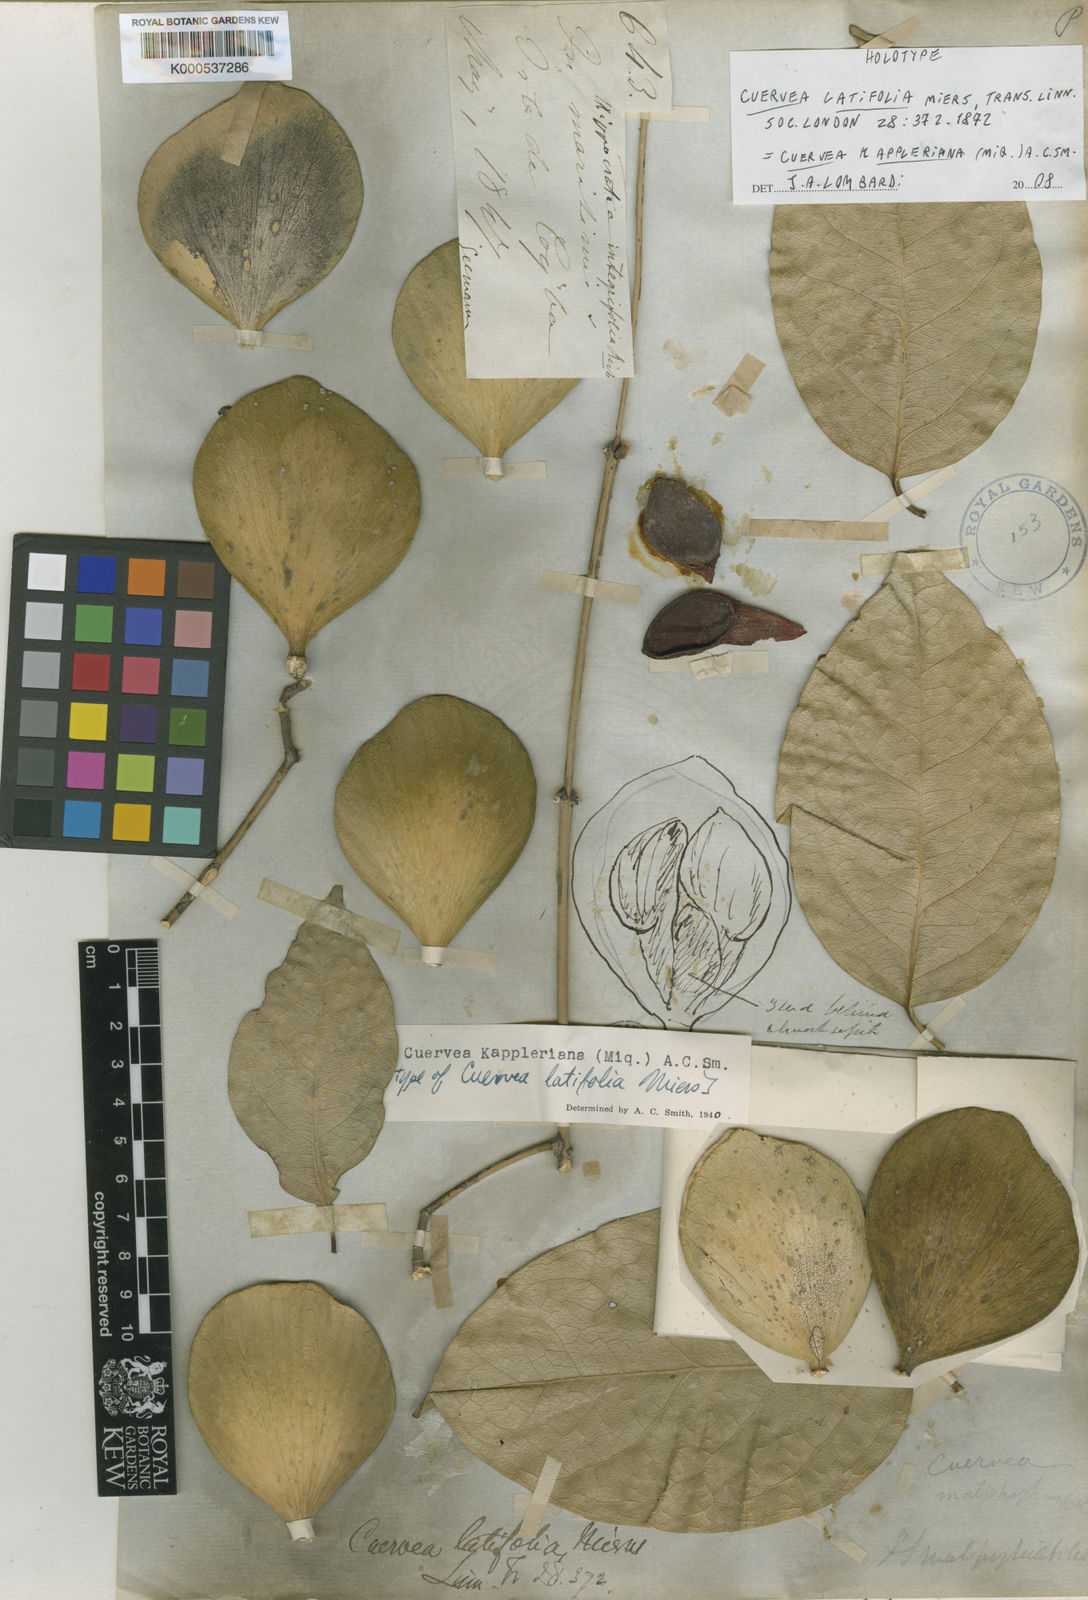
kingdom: Plantae
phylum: Tracheophyta
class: Magnoliopsida
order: Celastrales
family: Celastraceae
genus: Cuervea
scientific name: Cuervea kappleriana
